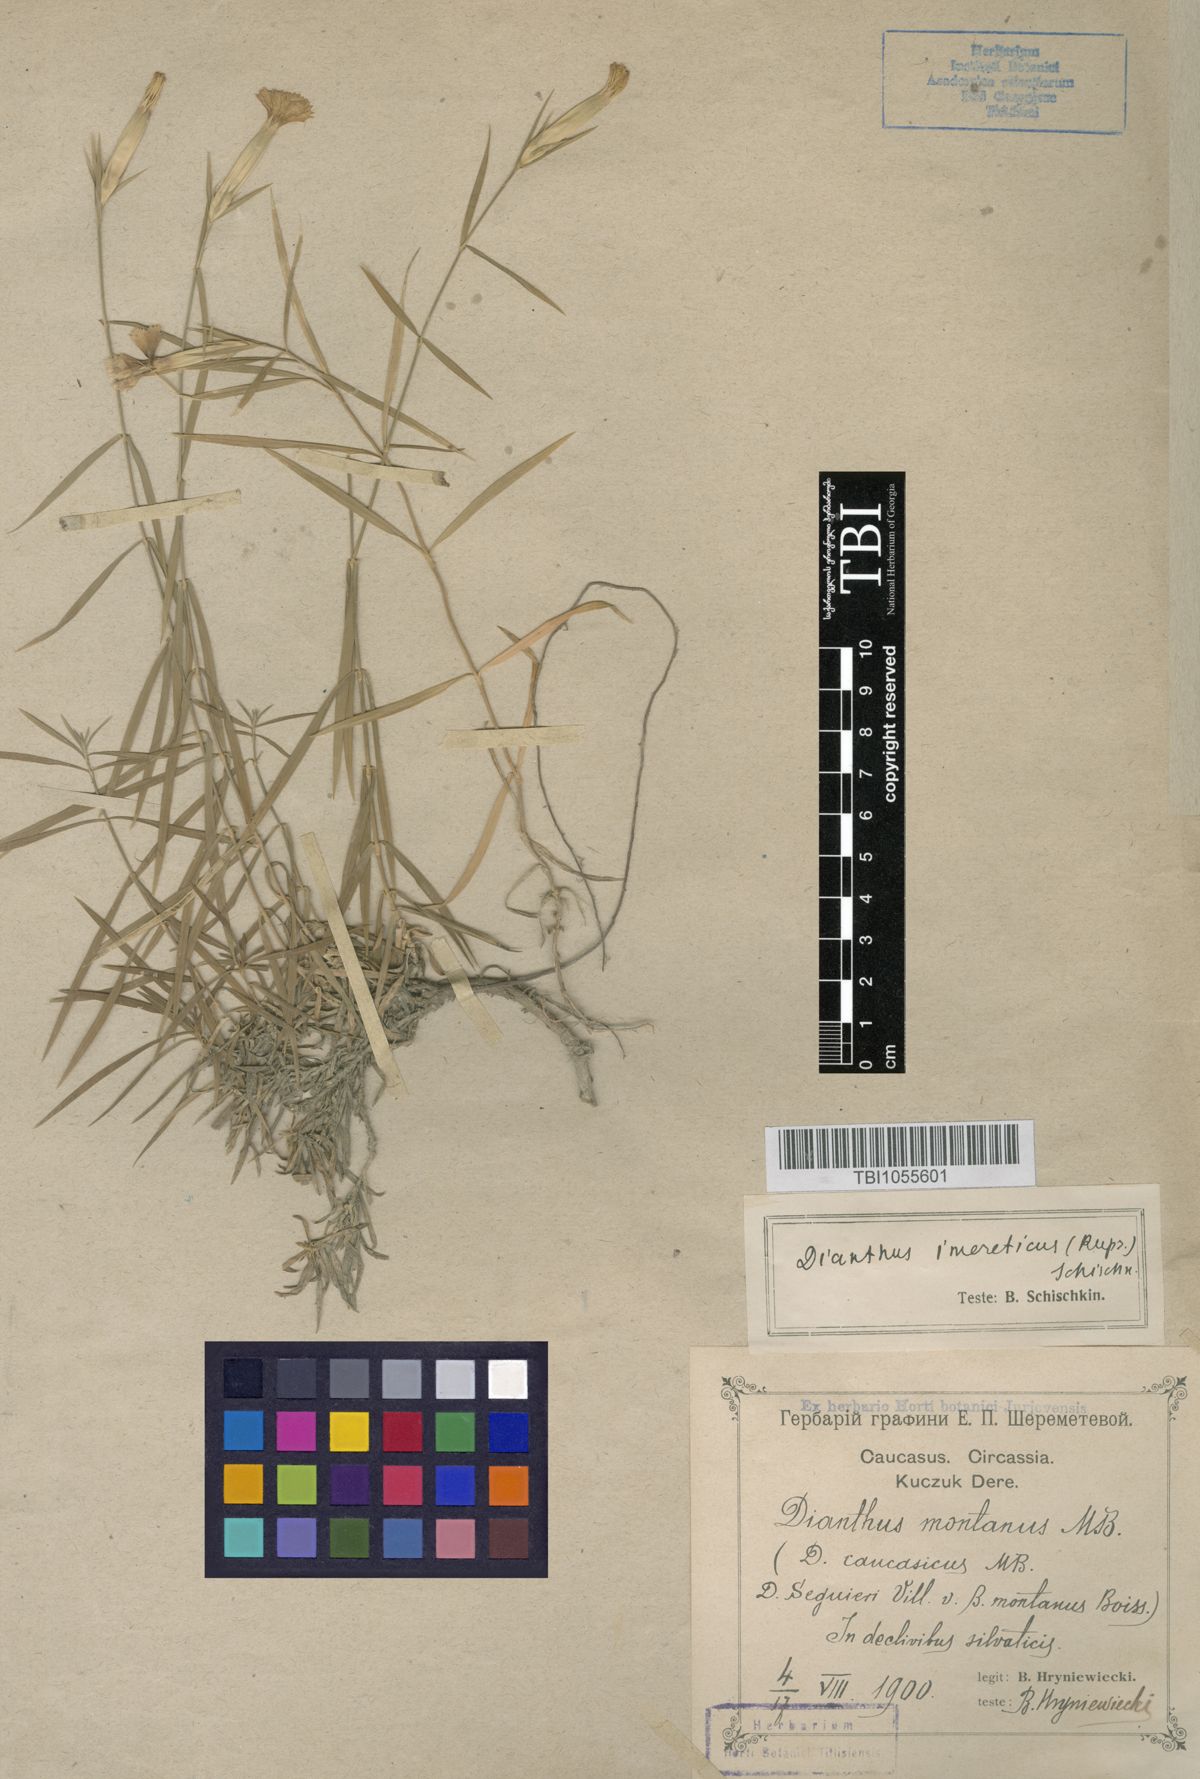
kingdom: Plantae
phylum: Tracheophyta
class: Magnoliopsida
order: Caryophyllales
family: Caryophyllaceae
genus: Dianthus
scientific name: Dianthus imereticus
